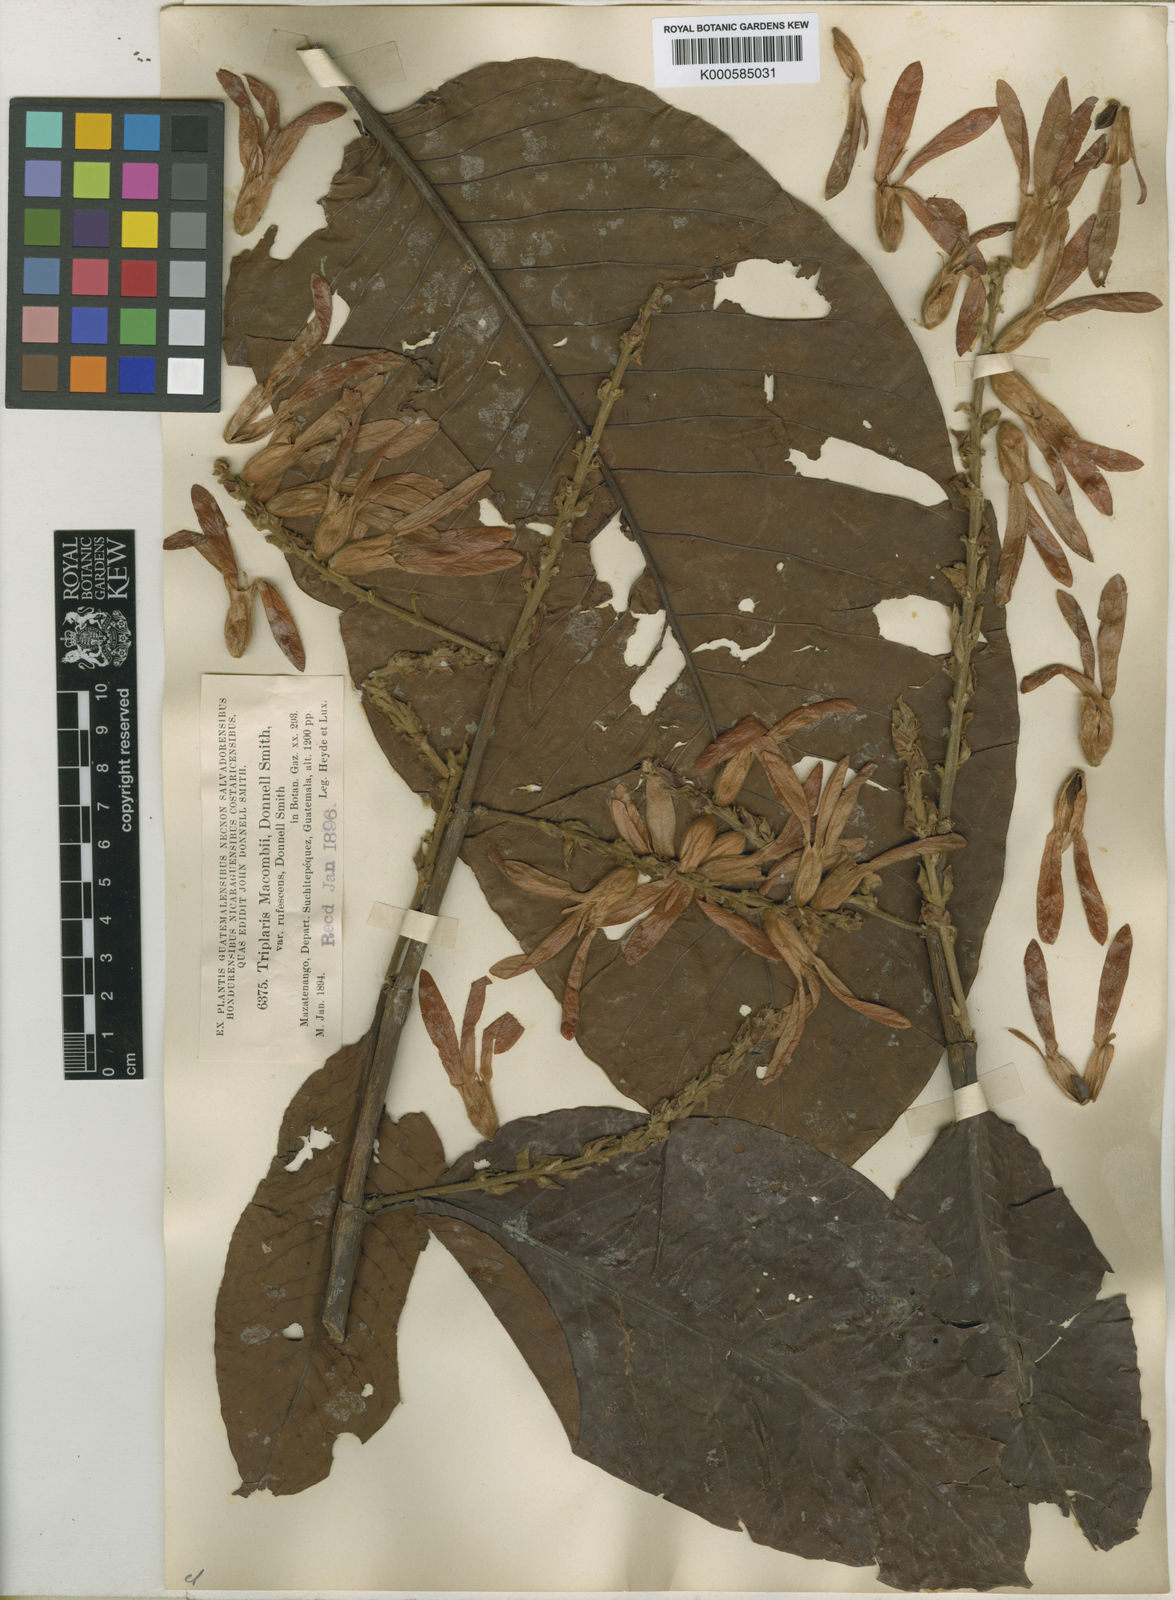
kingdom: Plantae
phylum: Tracheophyta
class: Magnoliopsida
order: Caryophyllales
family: Polygonaceae
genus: Triplaris
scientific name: Triplaris
